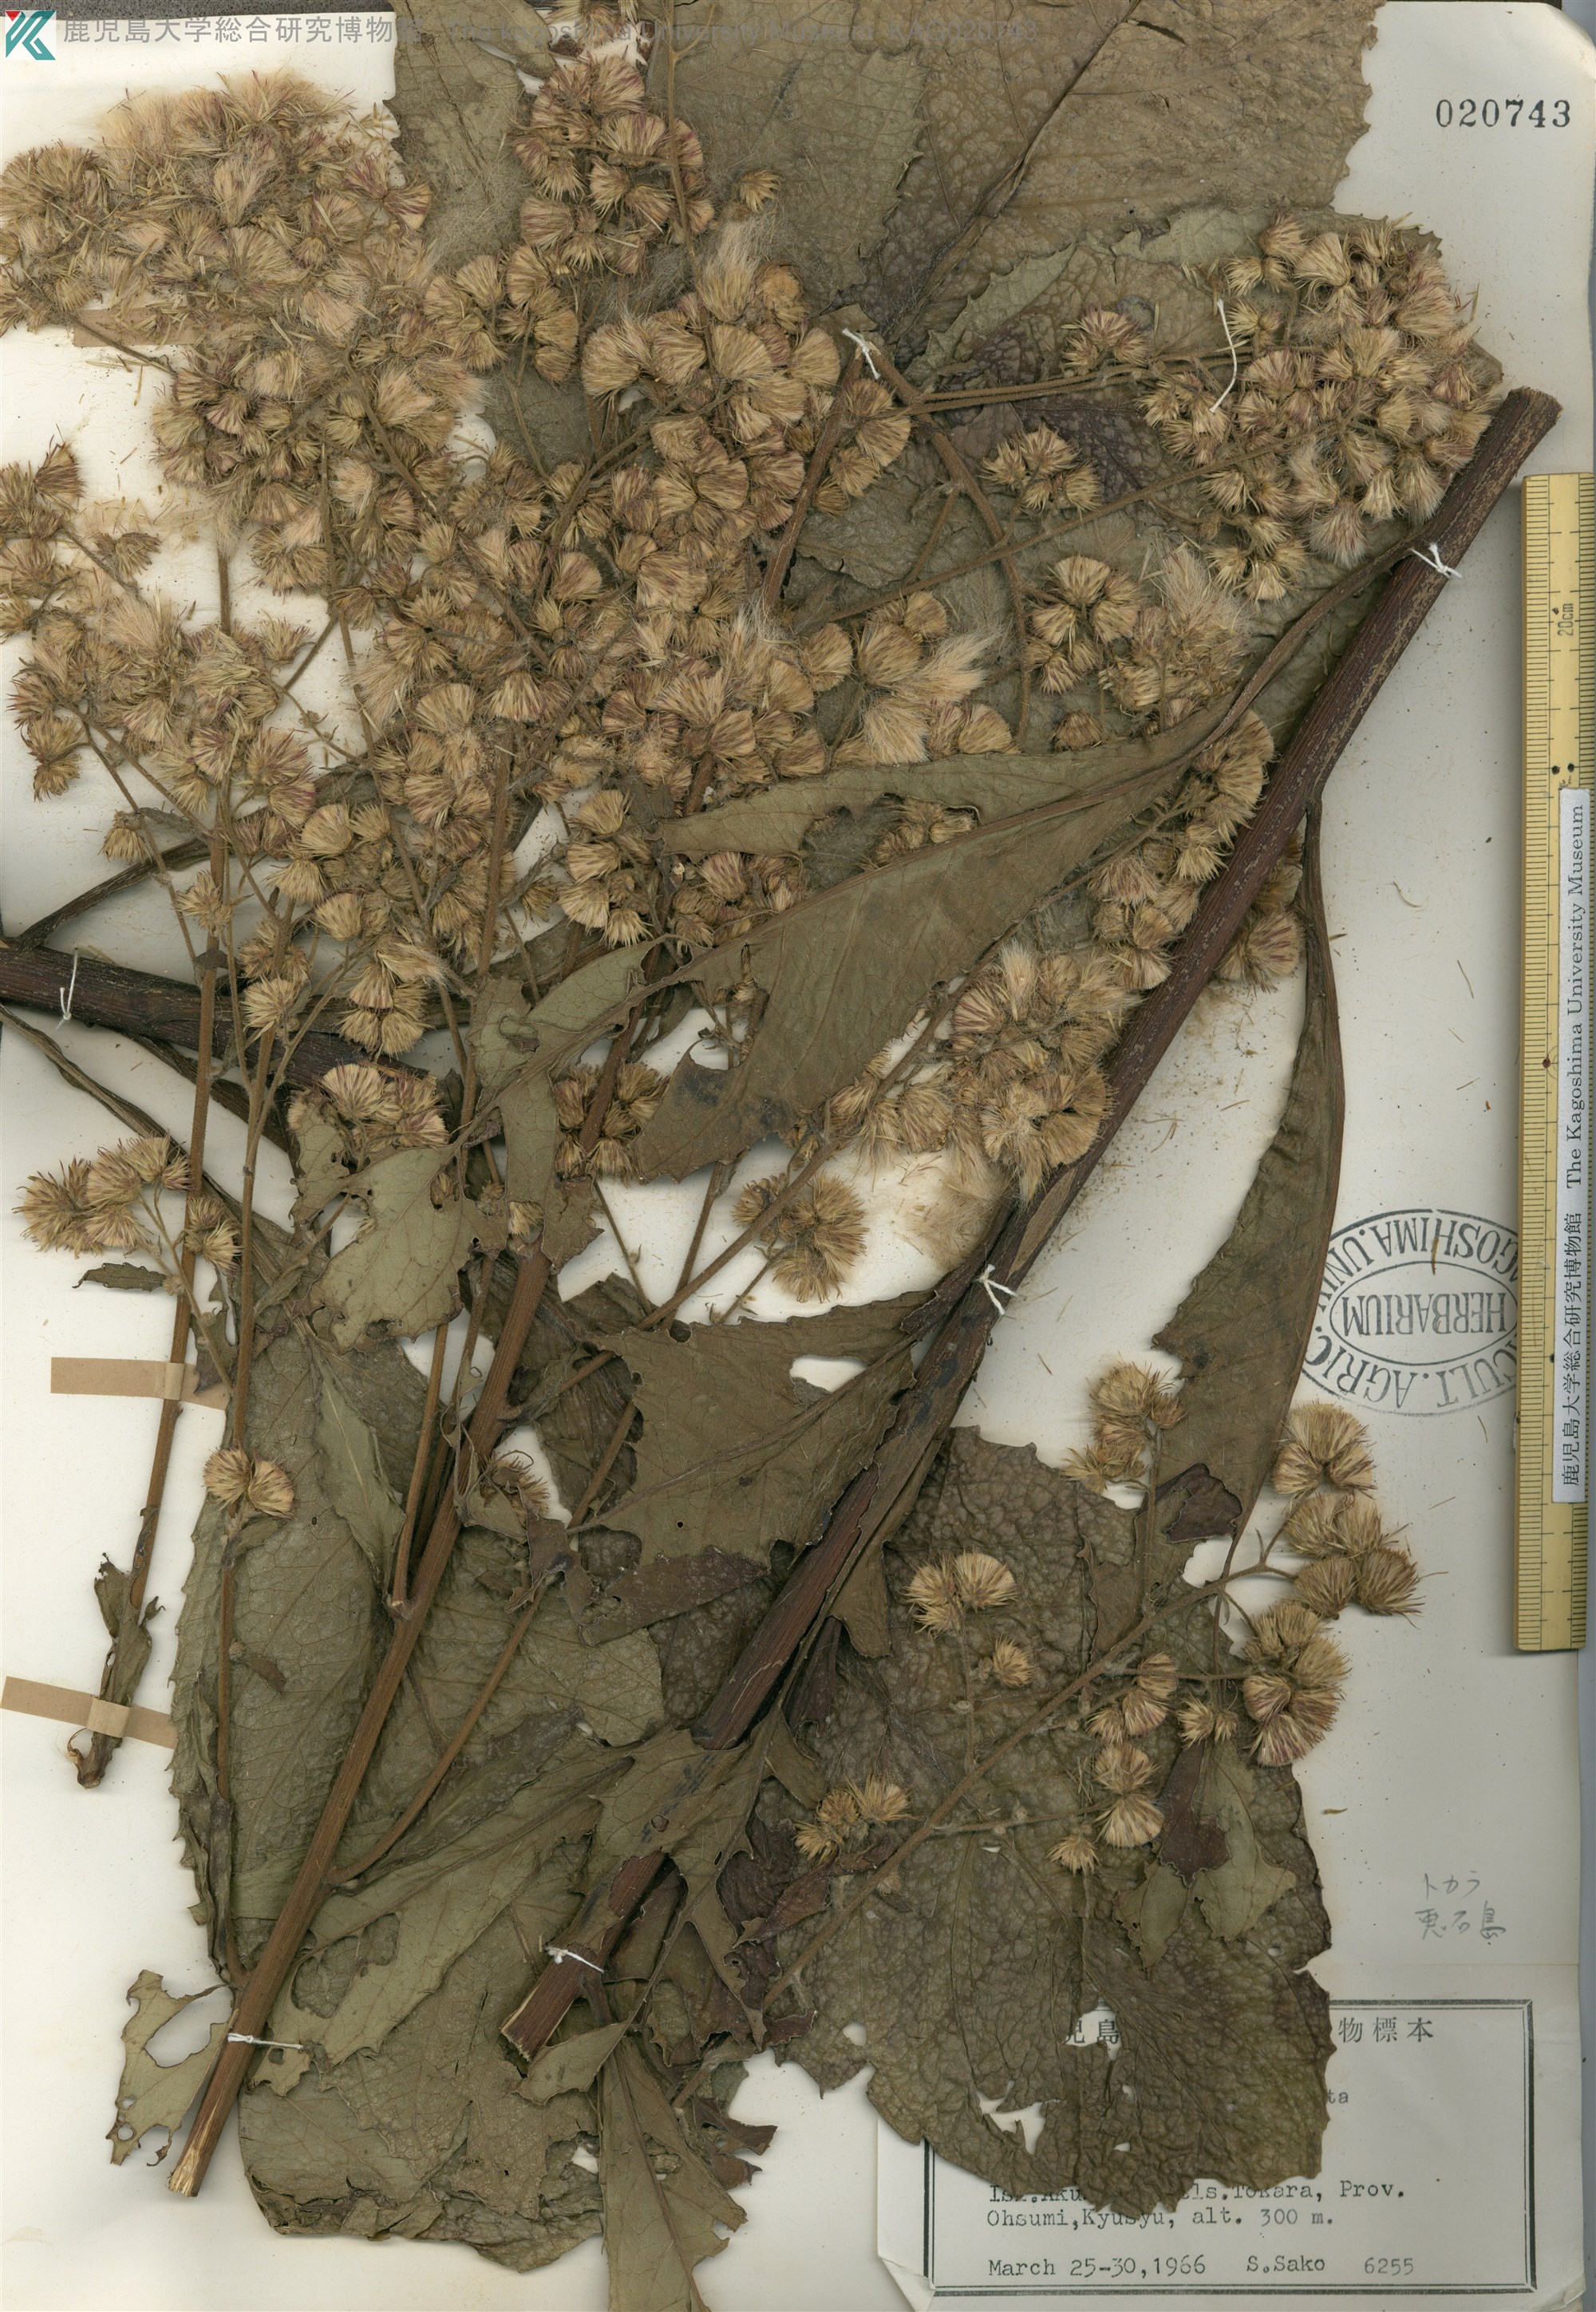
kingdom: Plantae
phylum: Tracheophyta
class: Magnoliopsida
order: Asterales
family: Asteraceae
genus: Blumea
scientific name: Blumea conspicua
